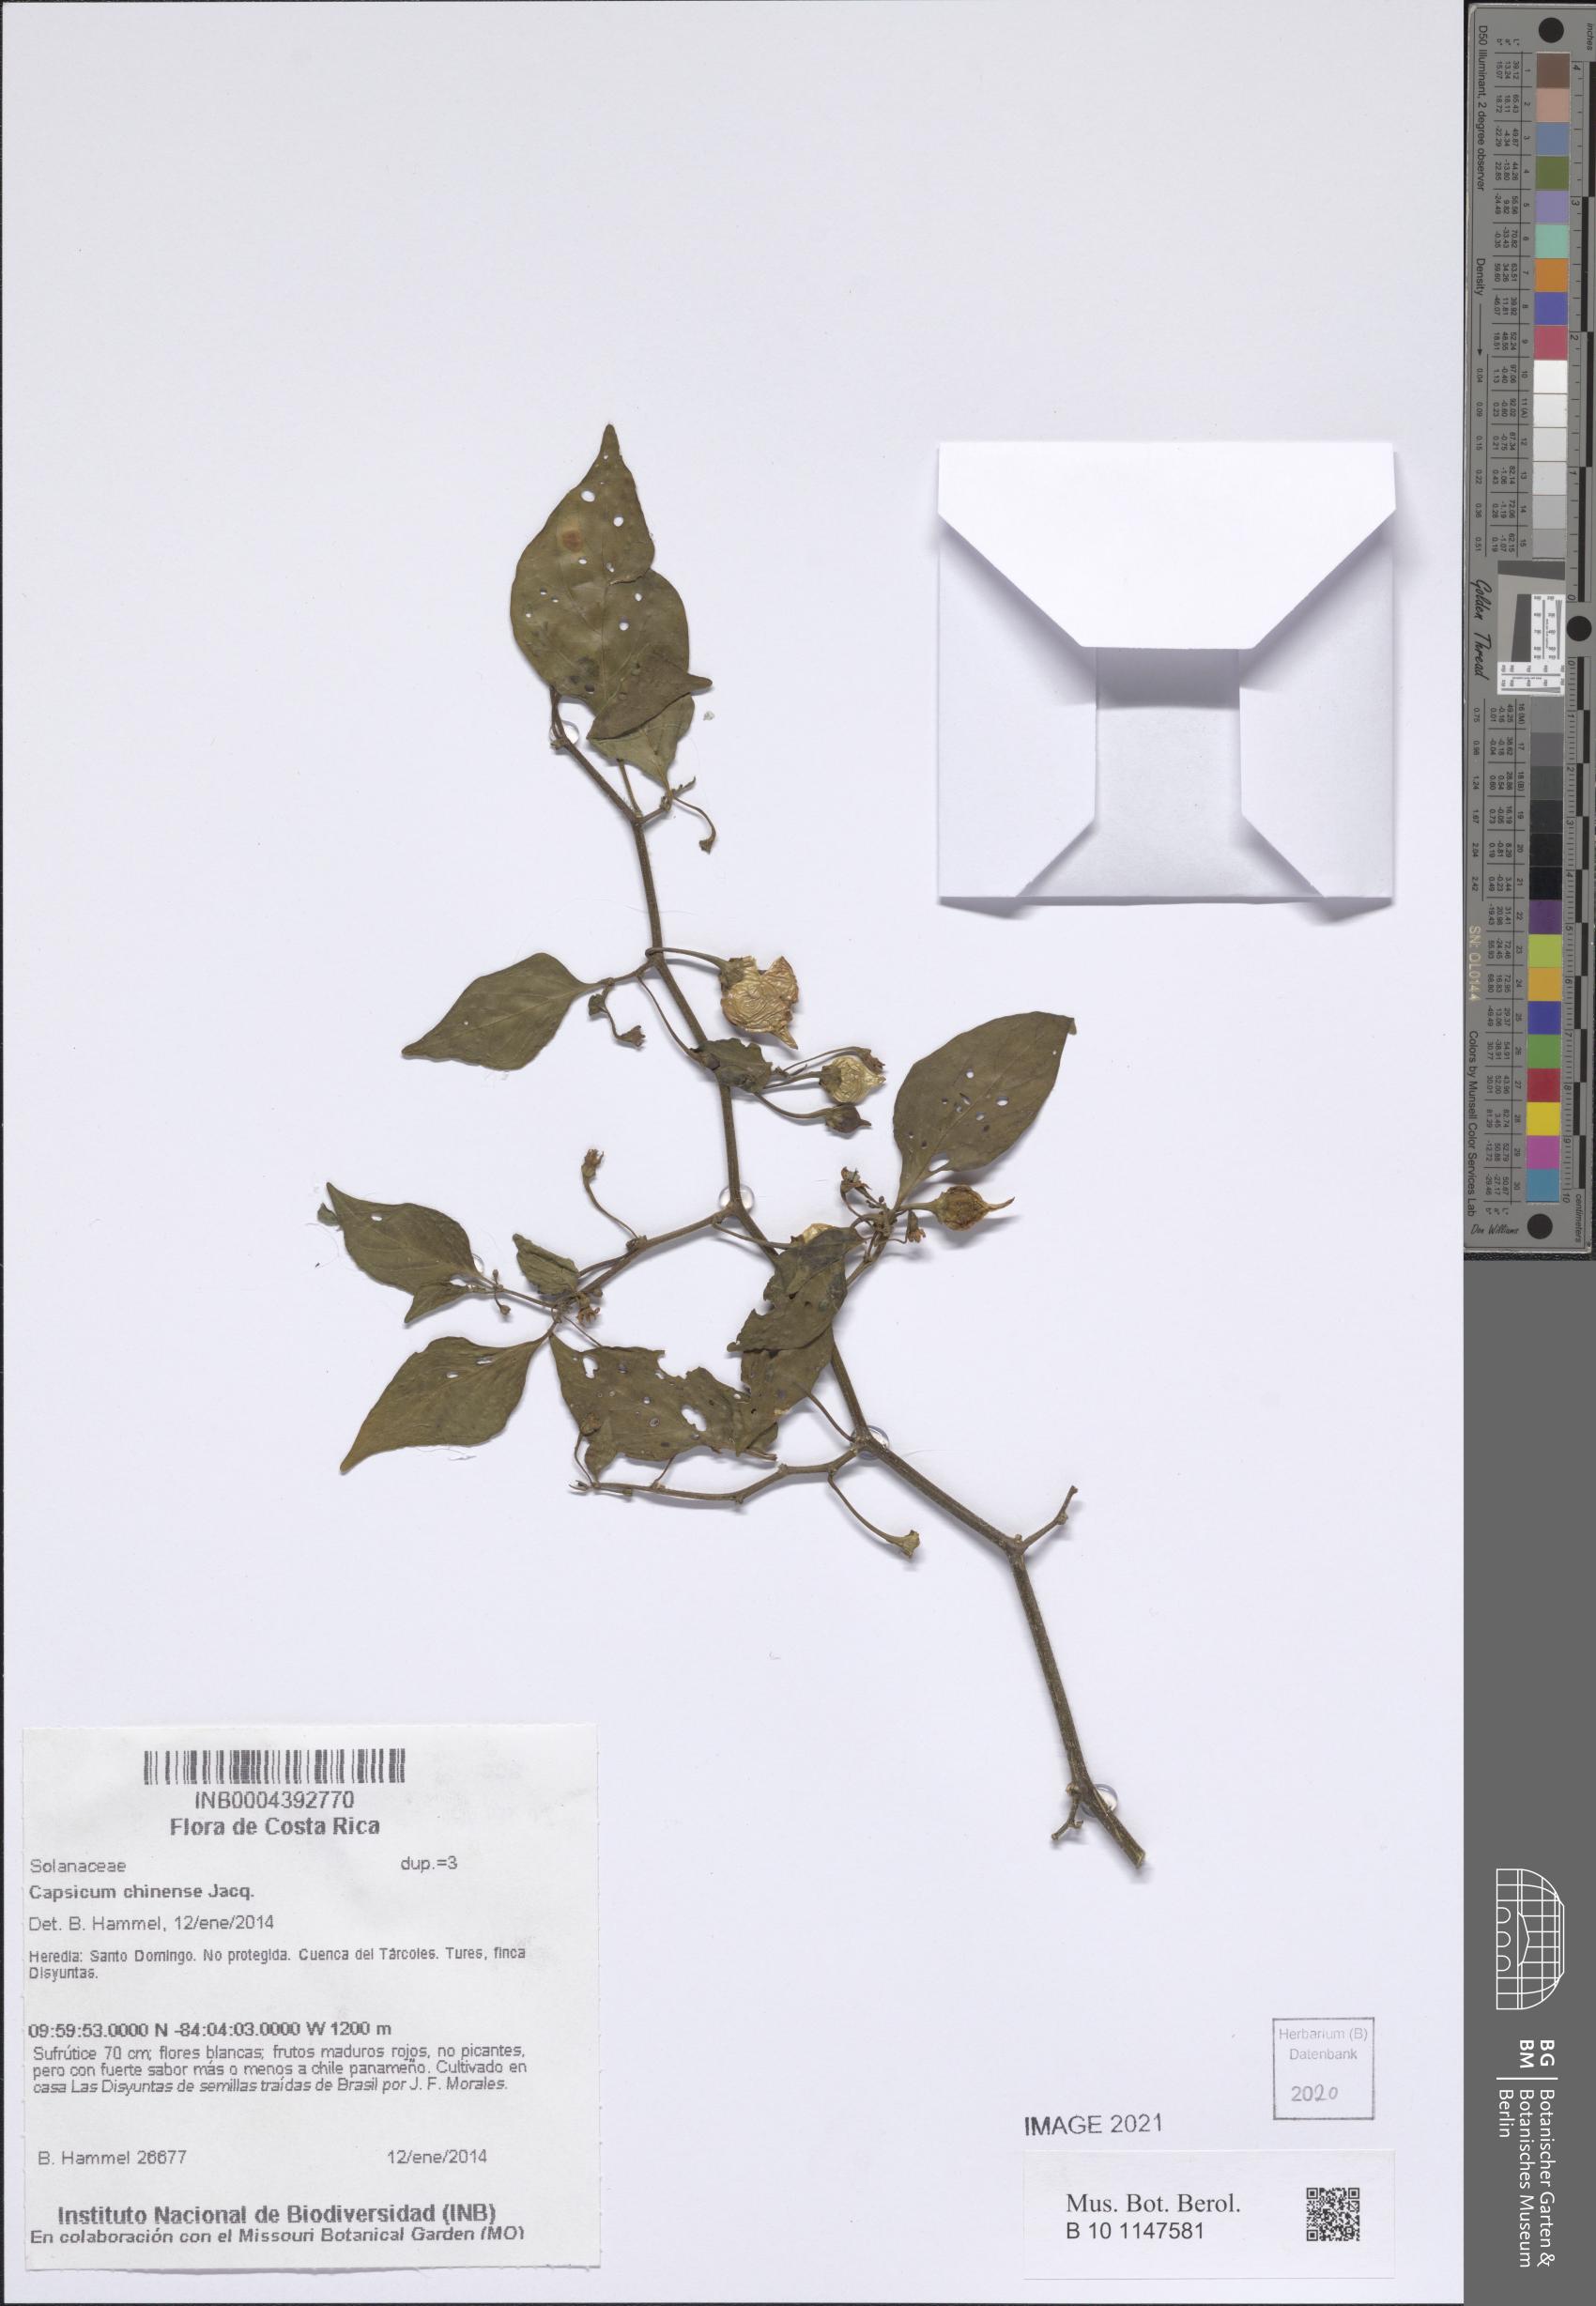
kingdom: Plantae
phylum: Tracheophyta
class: Magnoliopsida
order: Solanales
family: Solanaceae
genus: Capsicum
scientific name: Capsicum chinense
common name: Yellow squash pepper
